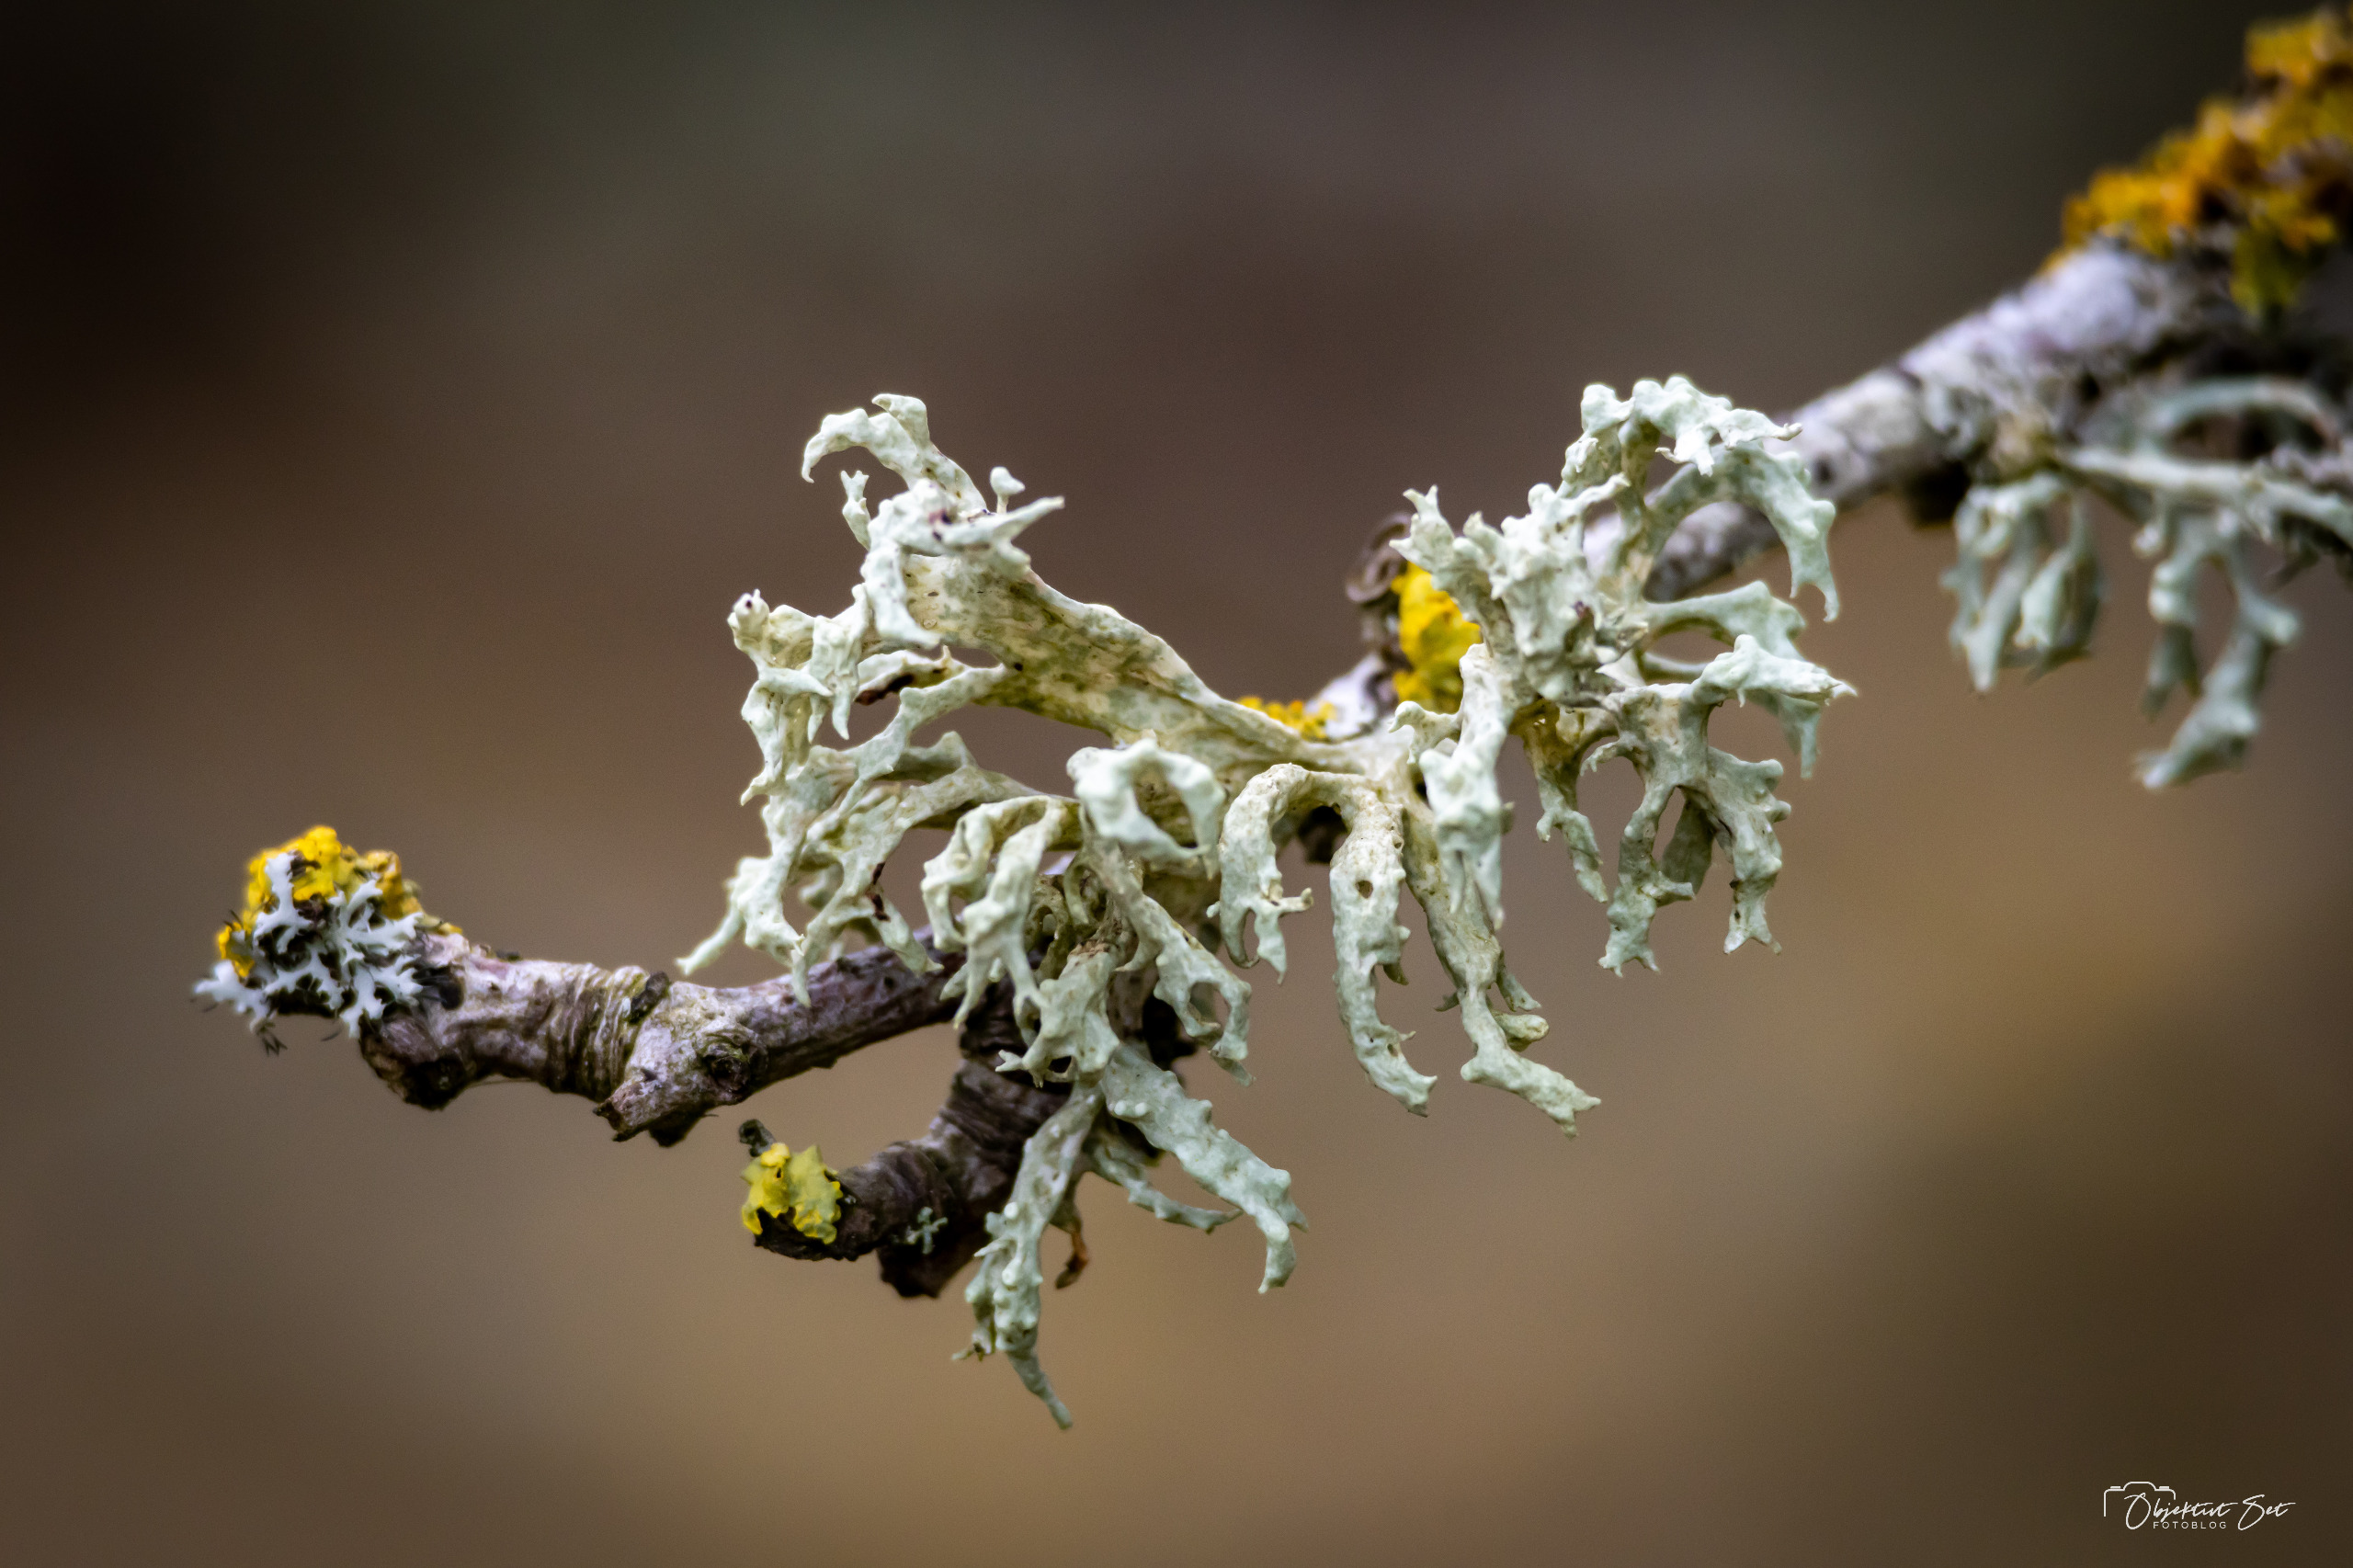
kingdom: Fungi
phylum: Ascomycota
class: Lecanoromycetes
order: Lecanorales
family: Ramalinaceae
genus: Ramalina
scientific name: Ramalina fastigiata
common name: Tue-grenlav
